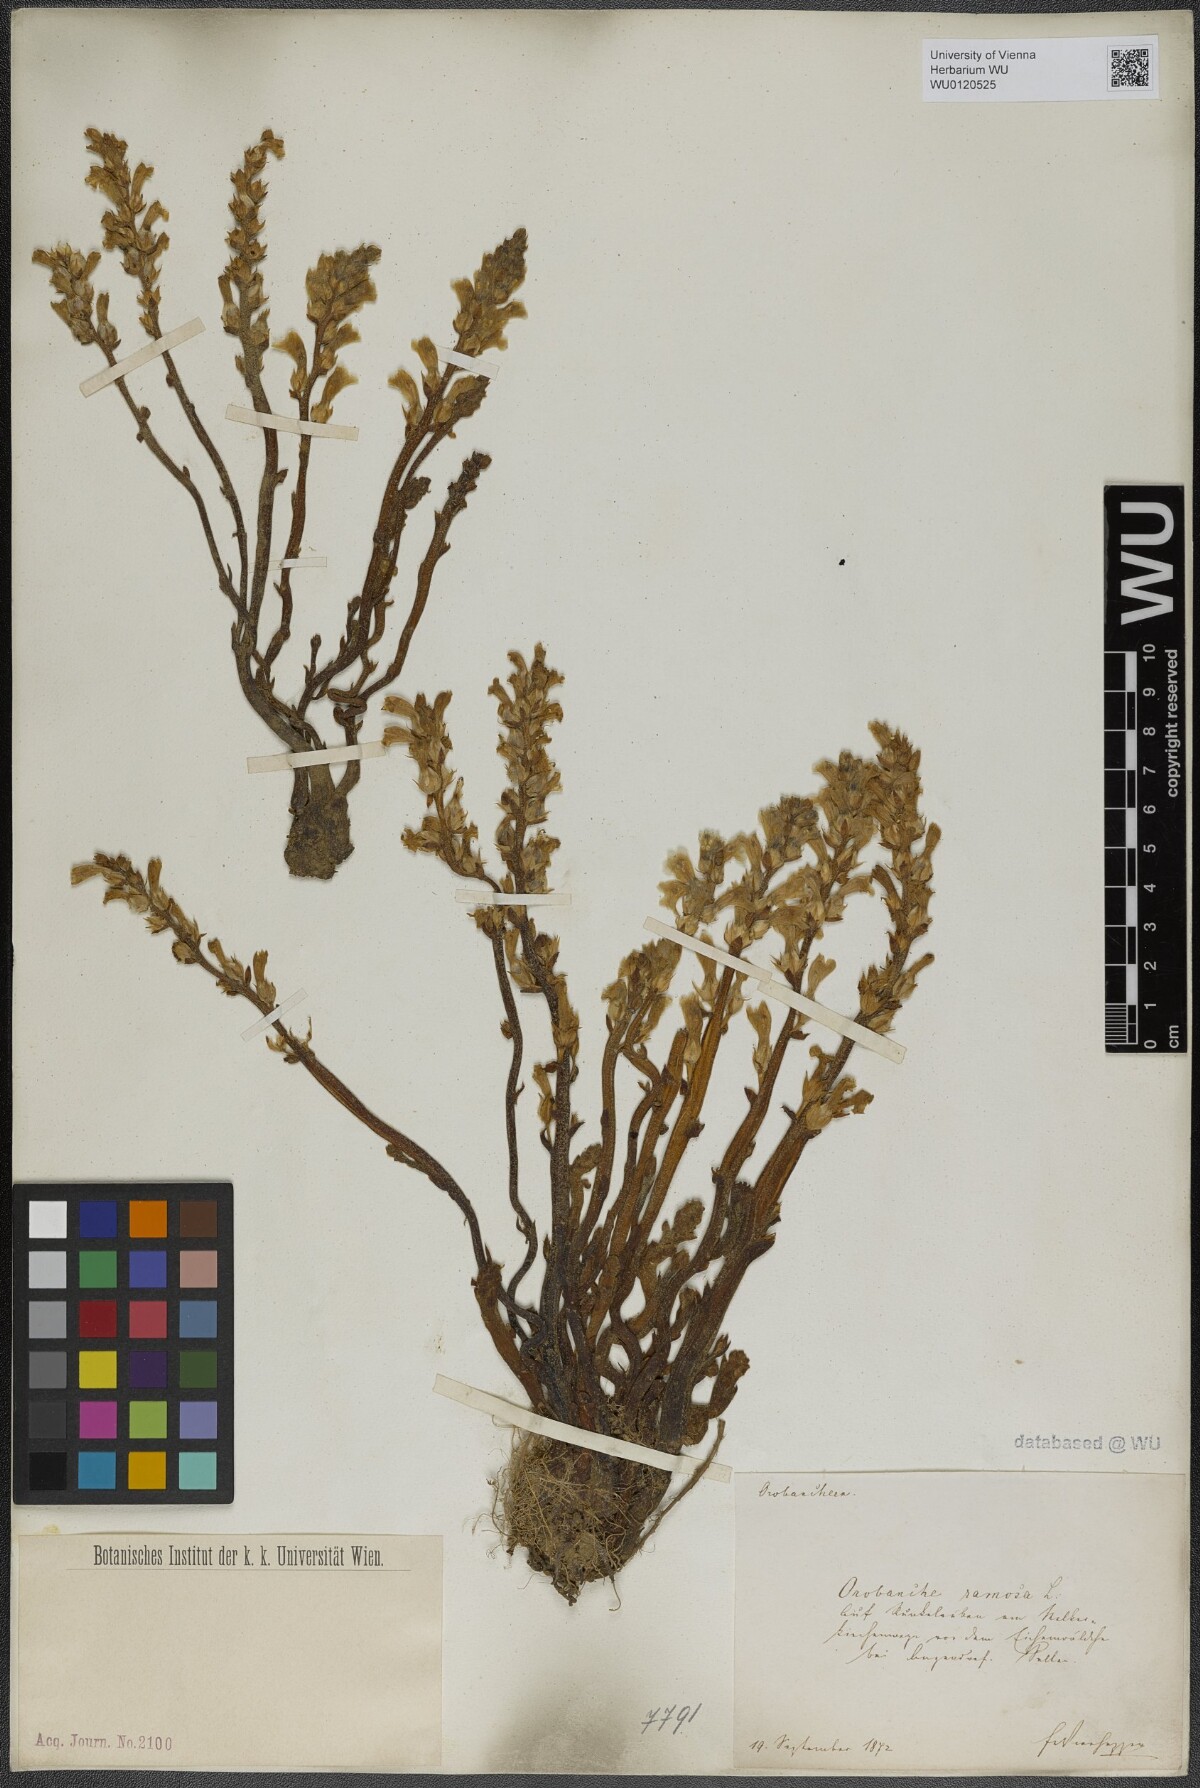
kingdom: Plantae
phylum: Tracheophyta
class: Magnoliopsida
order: Lamiales
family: Orobanchaceae
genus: Phelipanche
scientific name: Phelipanche ramosa
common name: Branched broomrape
